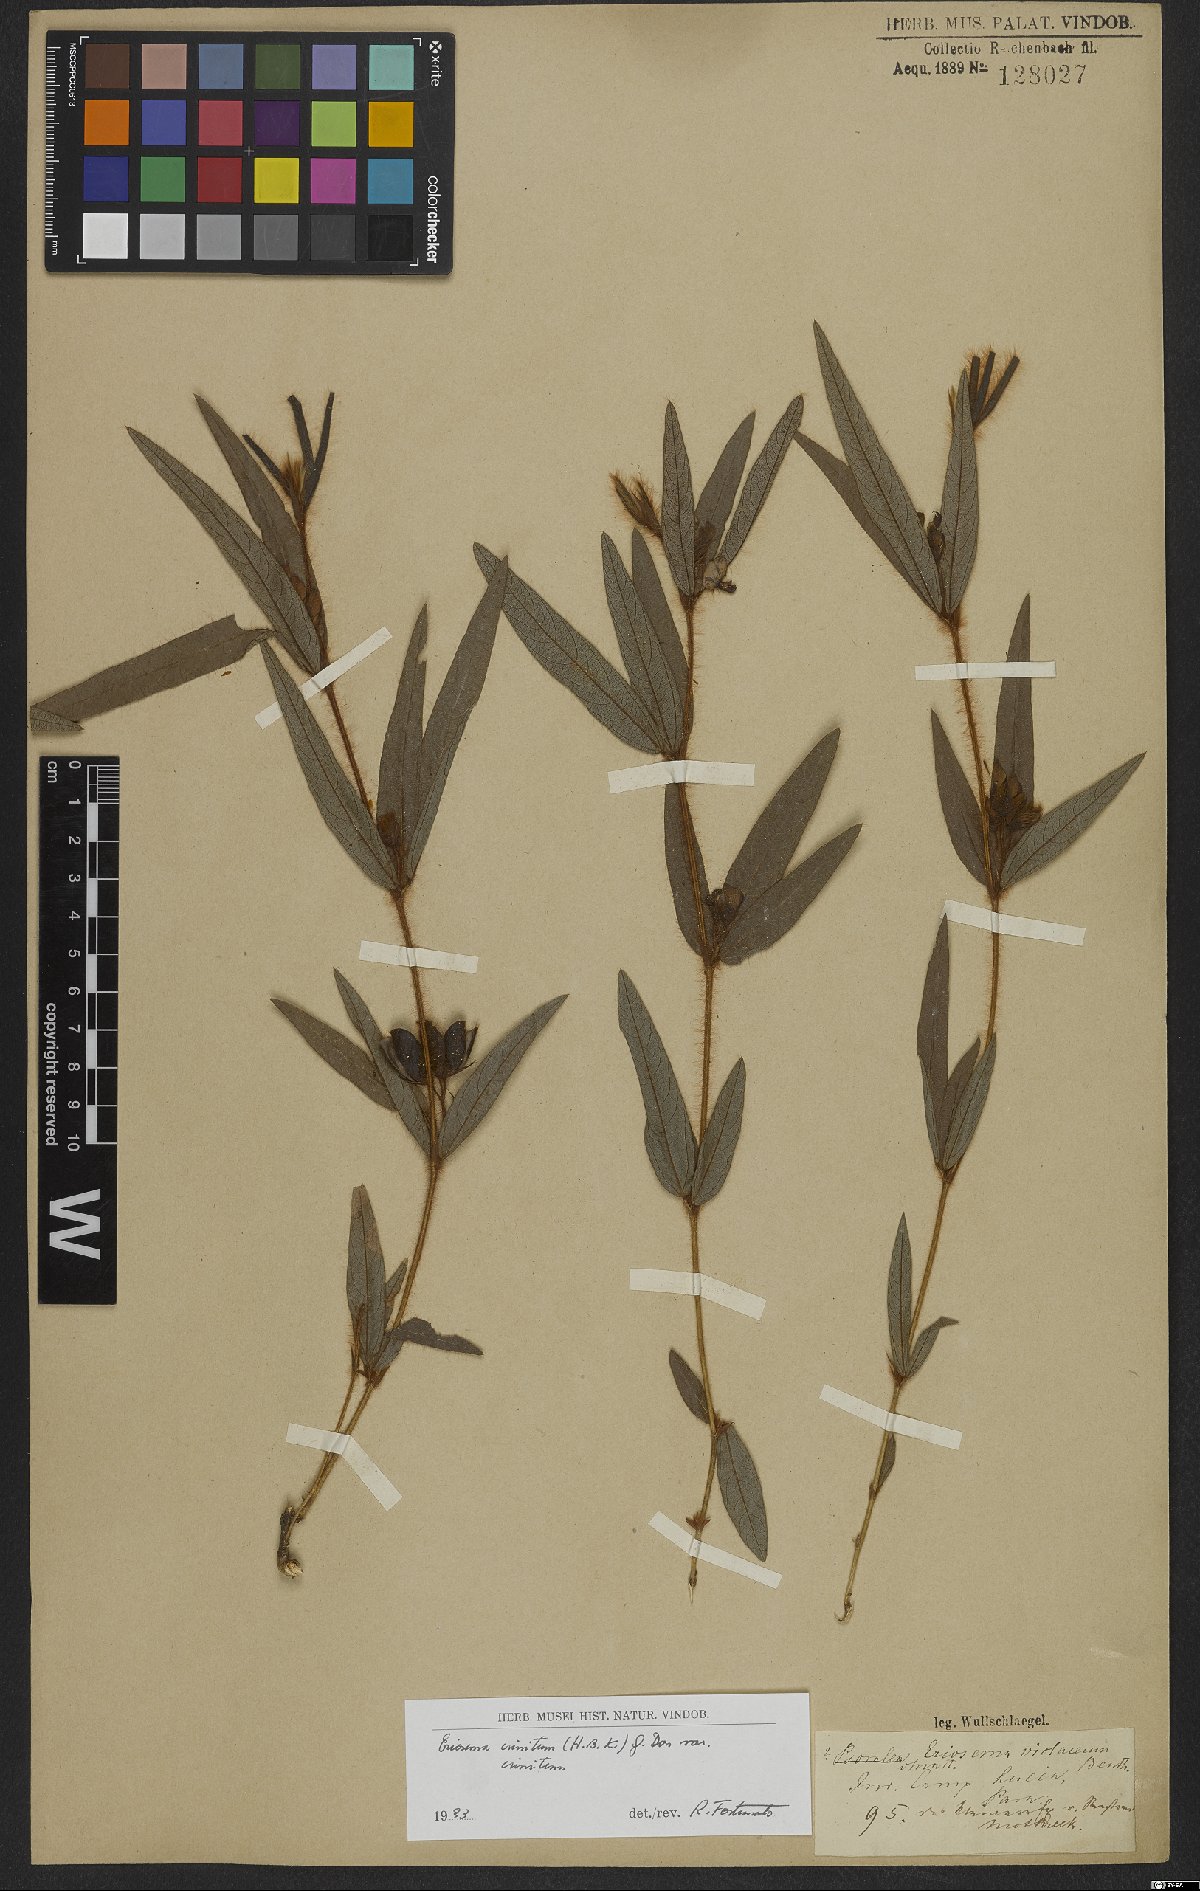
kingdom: Plantae
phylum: Tracheophyta
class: Magnoliopsida
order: Fabales
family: Fabaceae
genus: Eriosema
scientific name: Eriosema crinitum
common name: Sand pea
